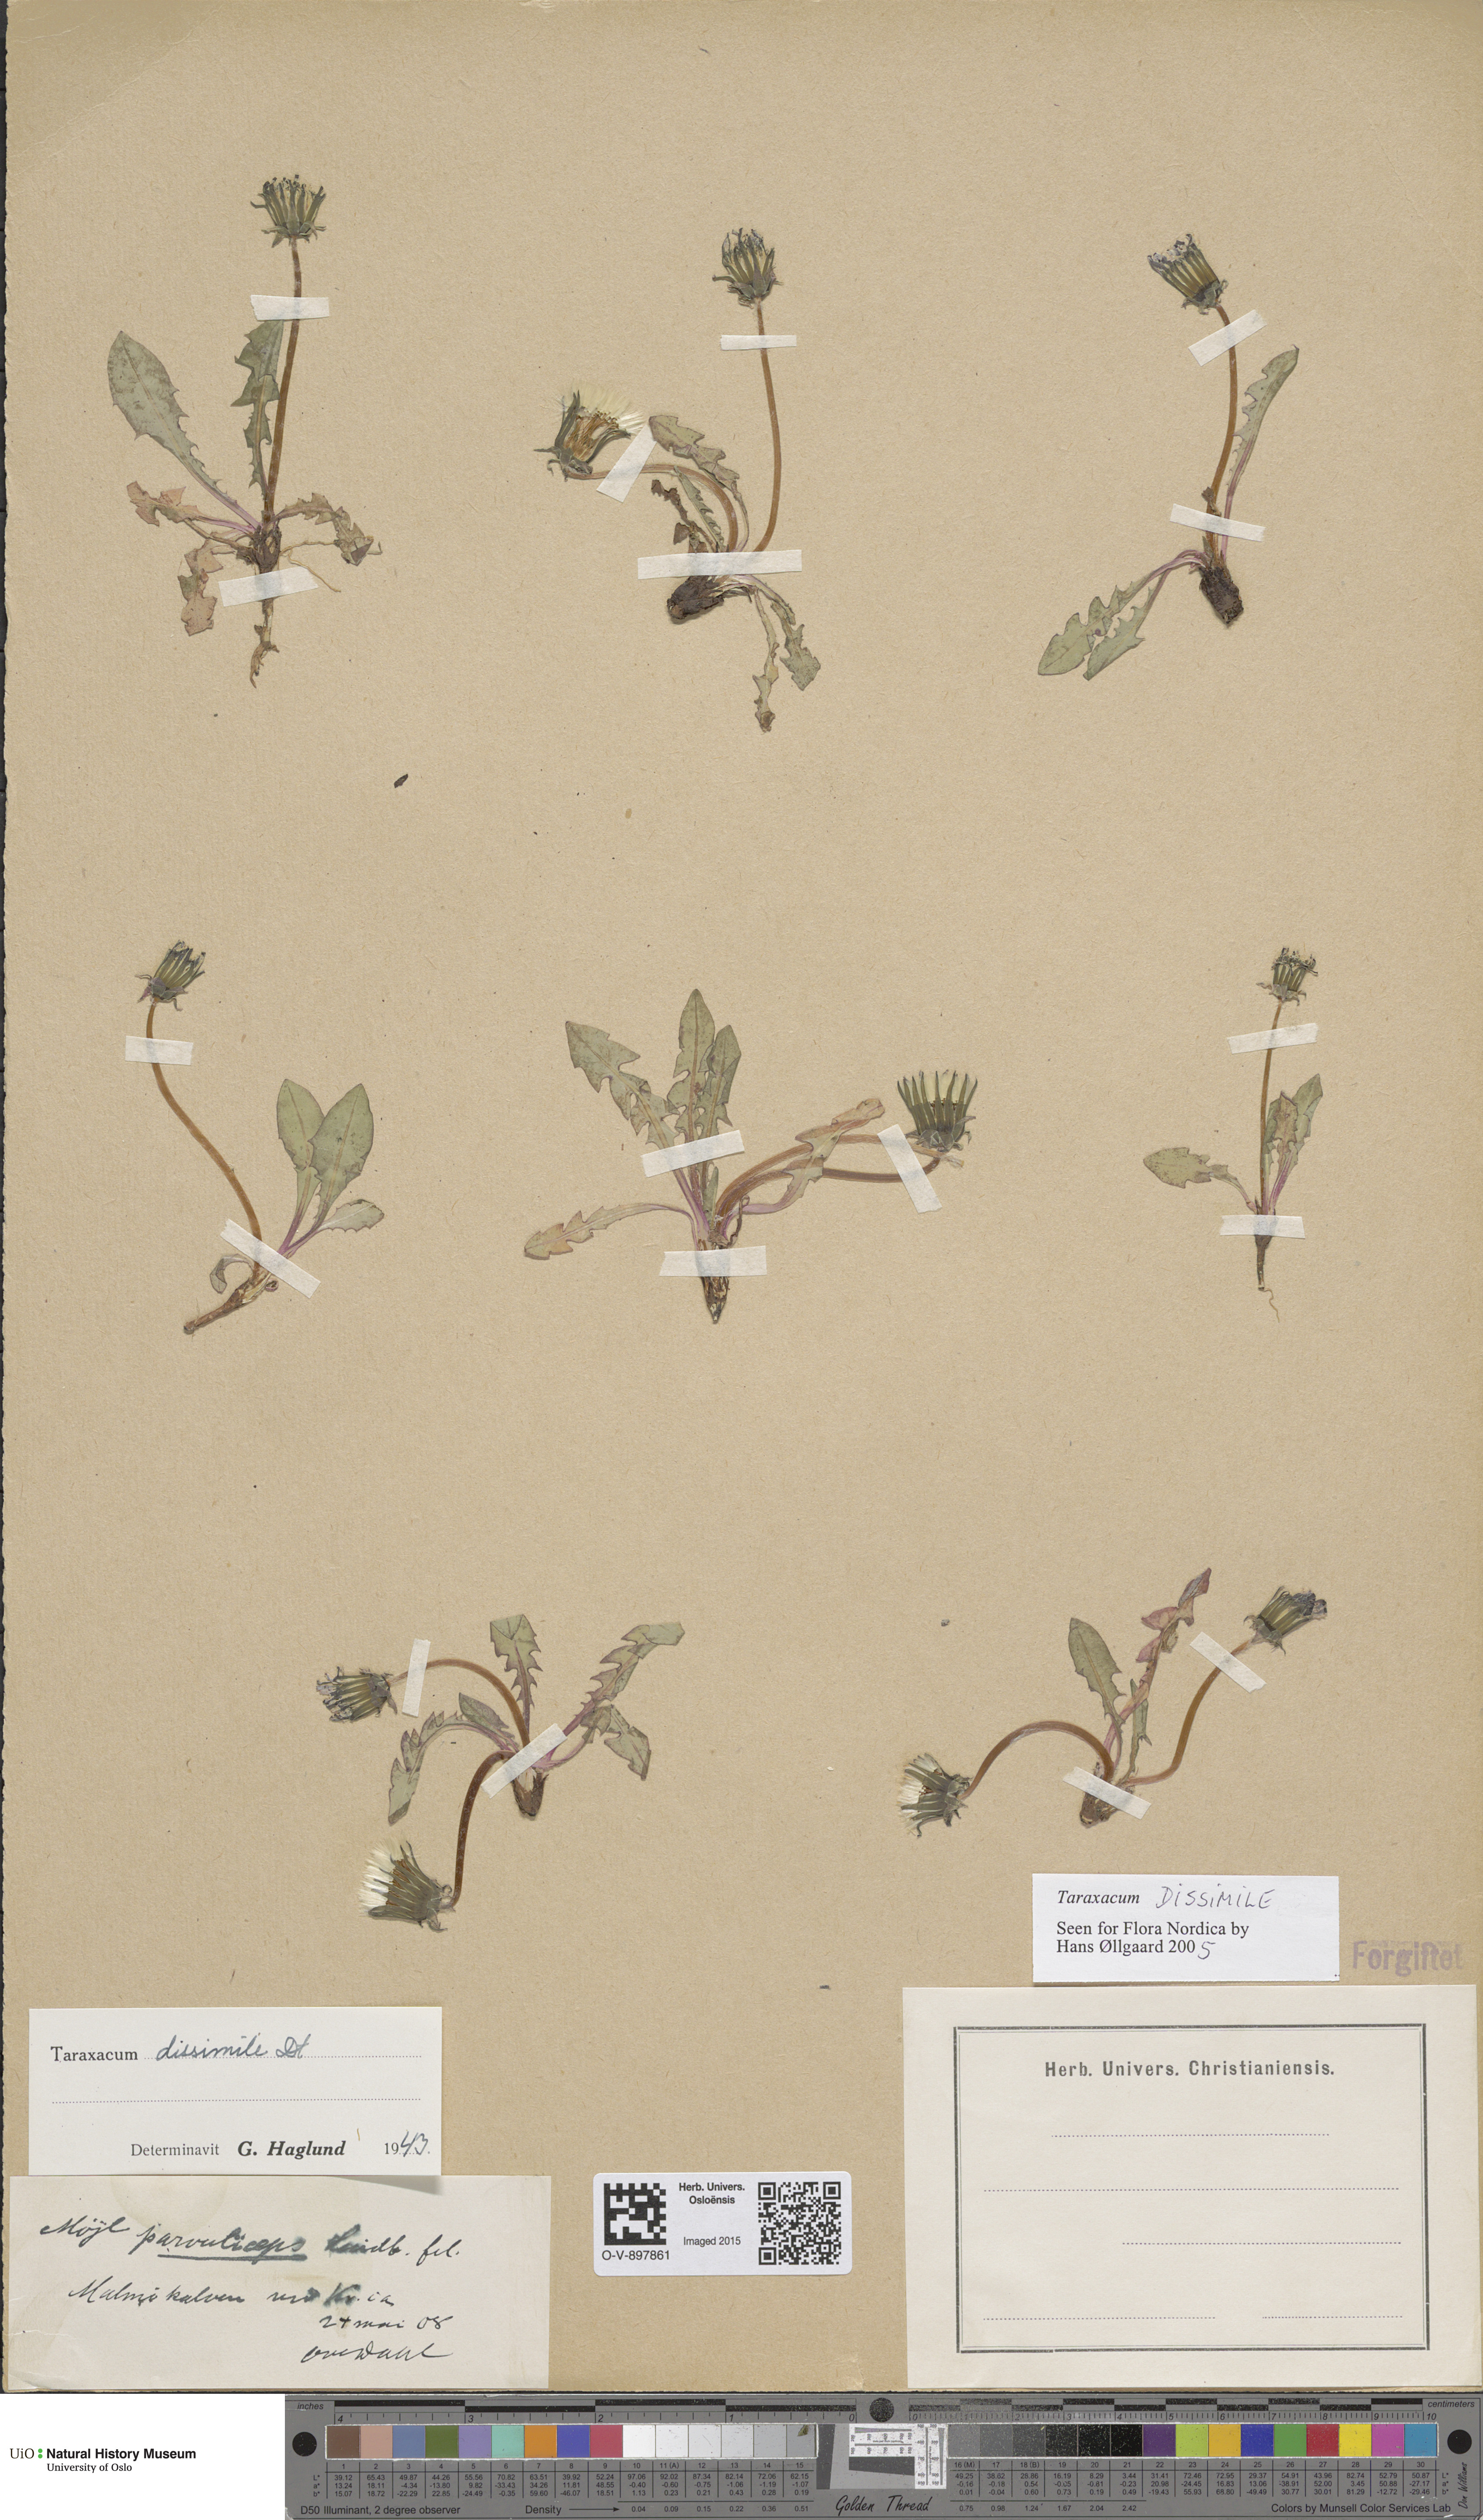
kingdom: Plantae
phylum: Tracheophyta
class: Magnoliopsida
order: Asterales
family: Asteraceae
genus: Taraxacum
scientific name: Taraxacum dissimile
